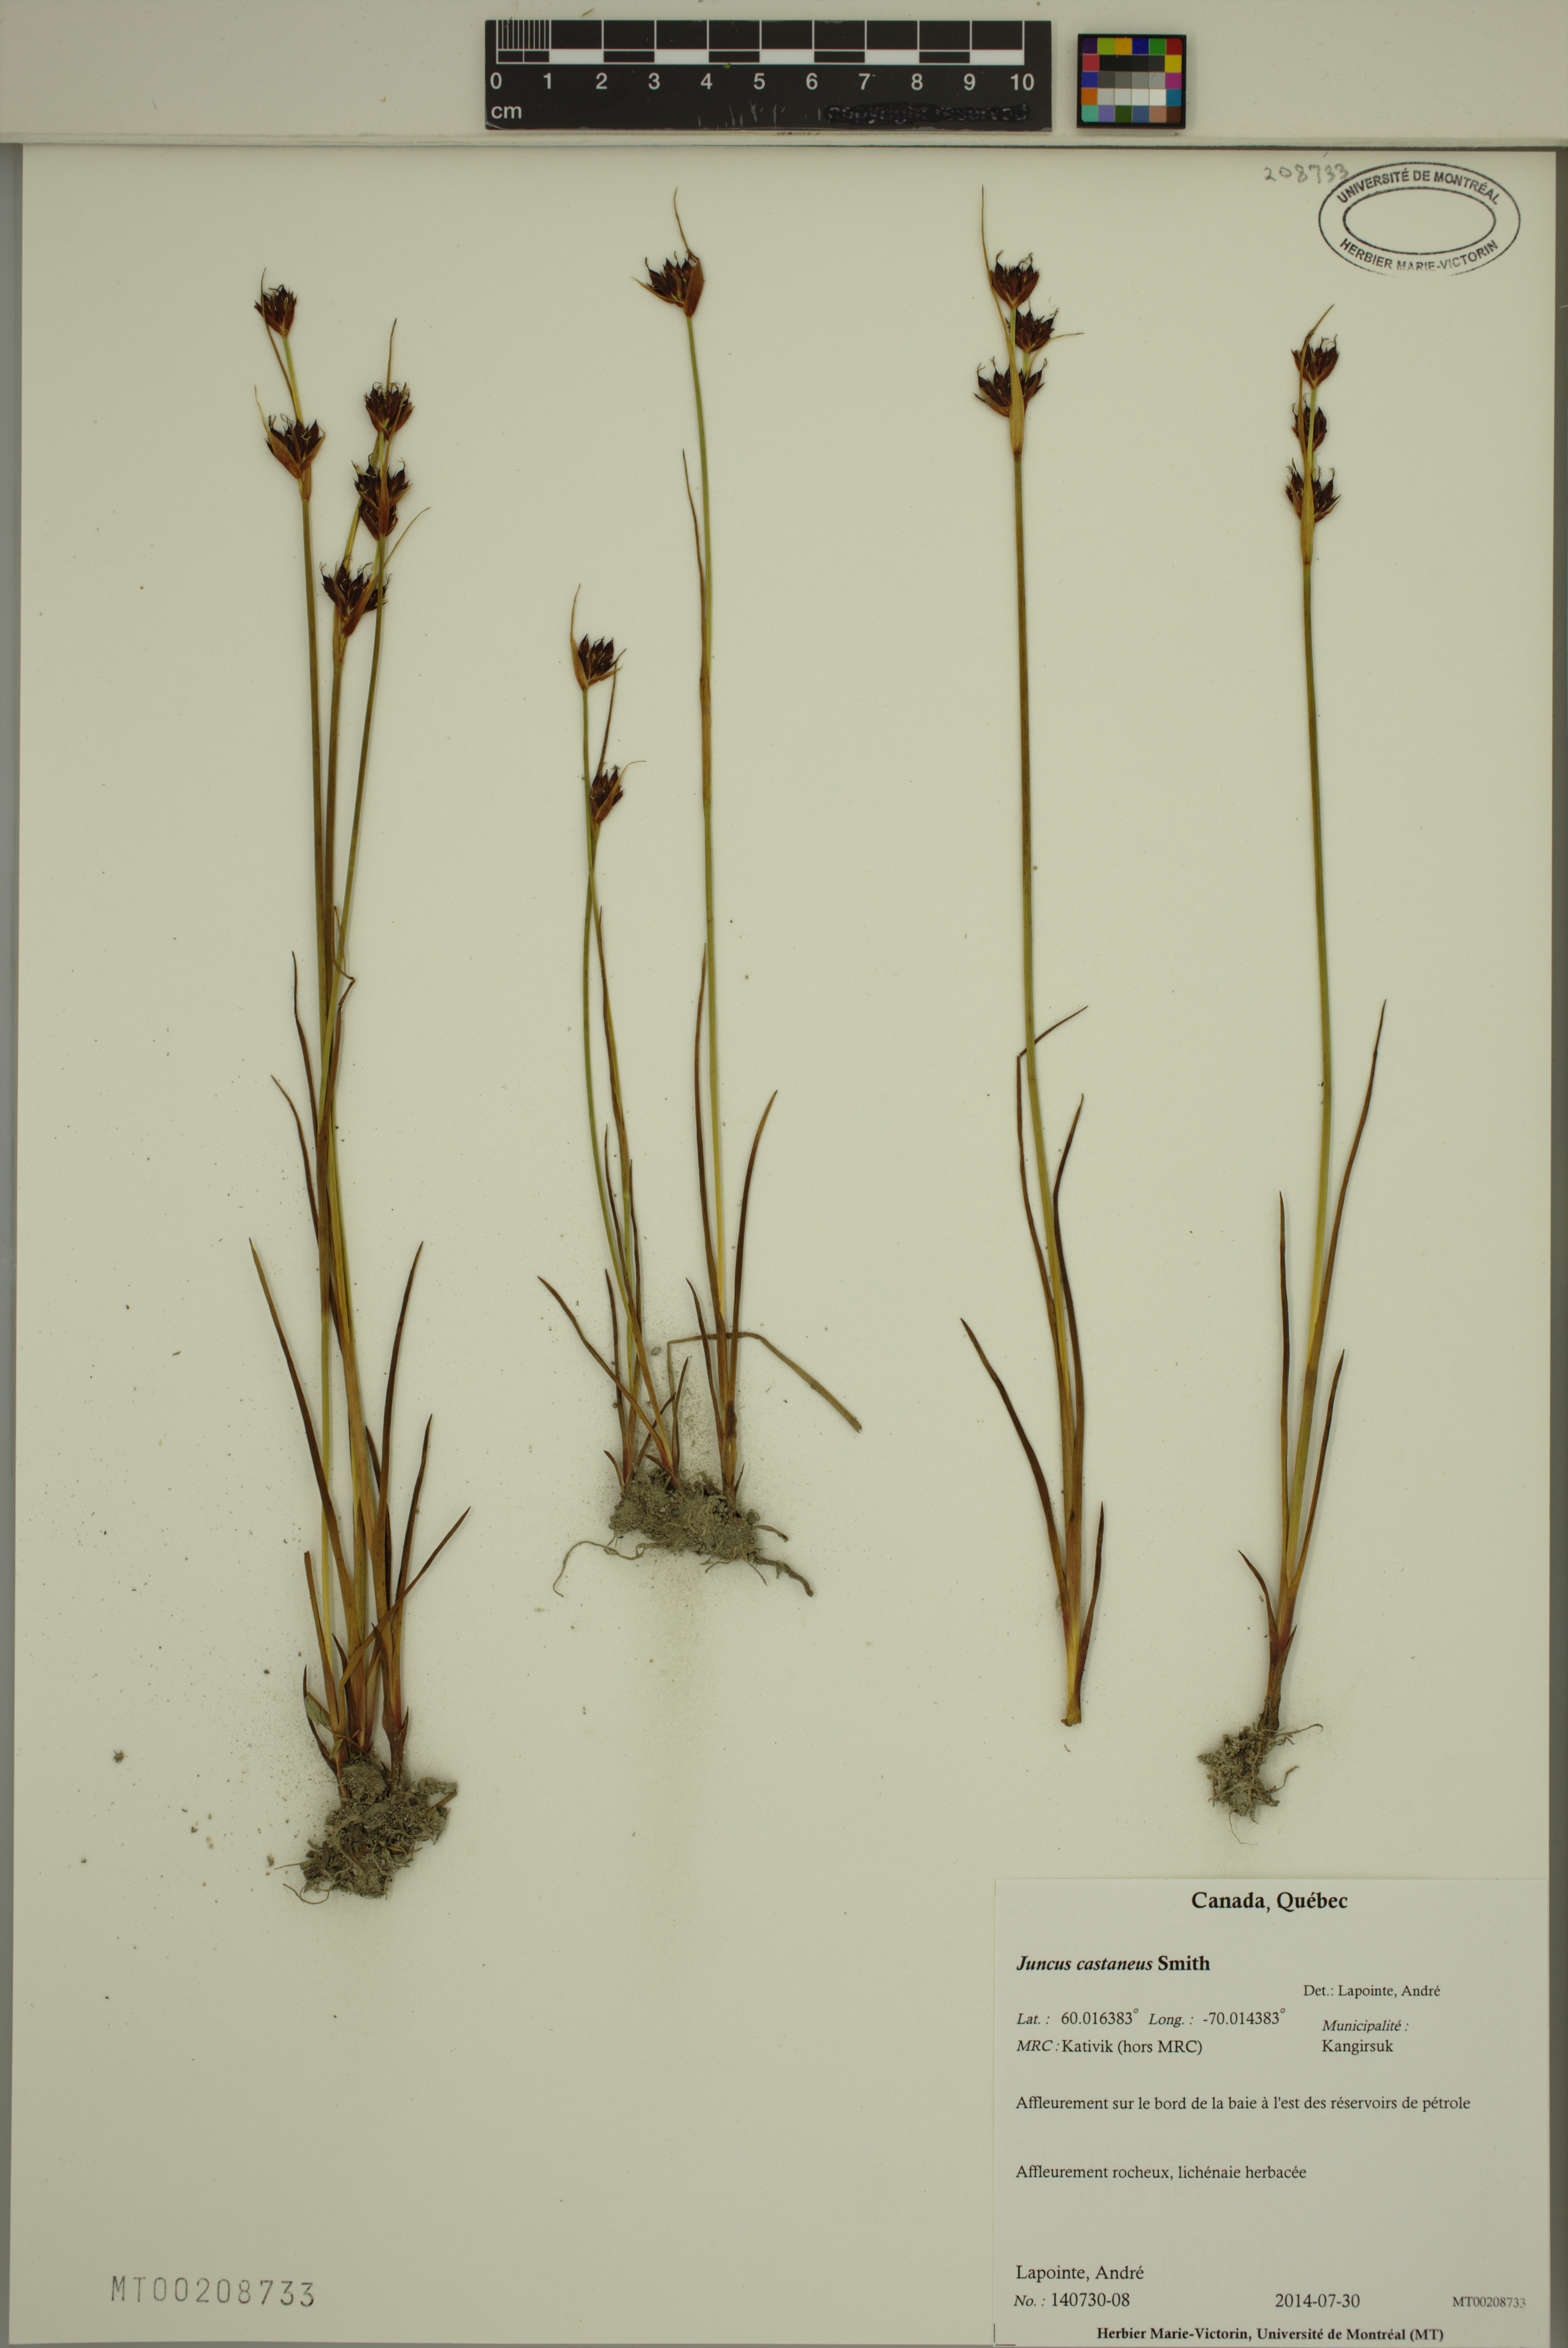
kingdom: Plantae
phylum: Tracheophyta
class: Liliopsida
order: Poales
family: Juncaceae
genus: Juncus
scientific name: Juncus castaneus
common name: Chestnut rush
